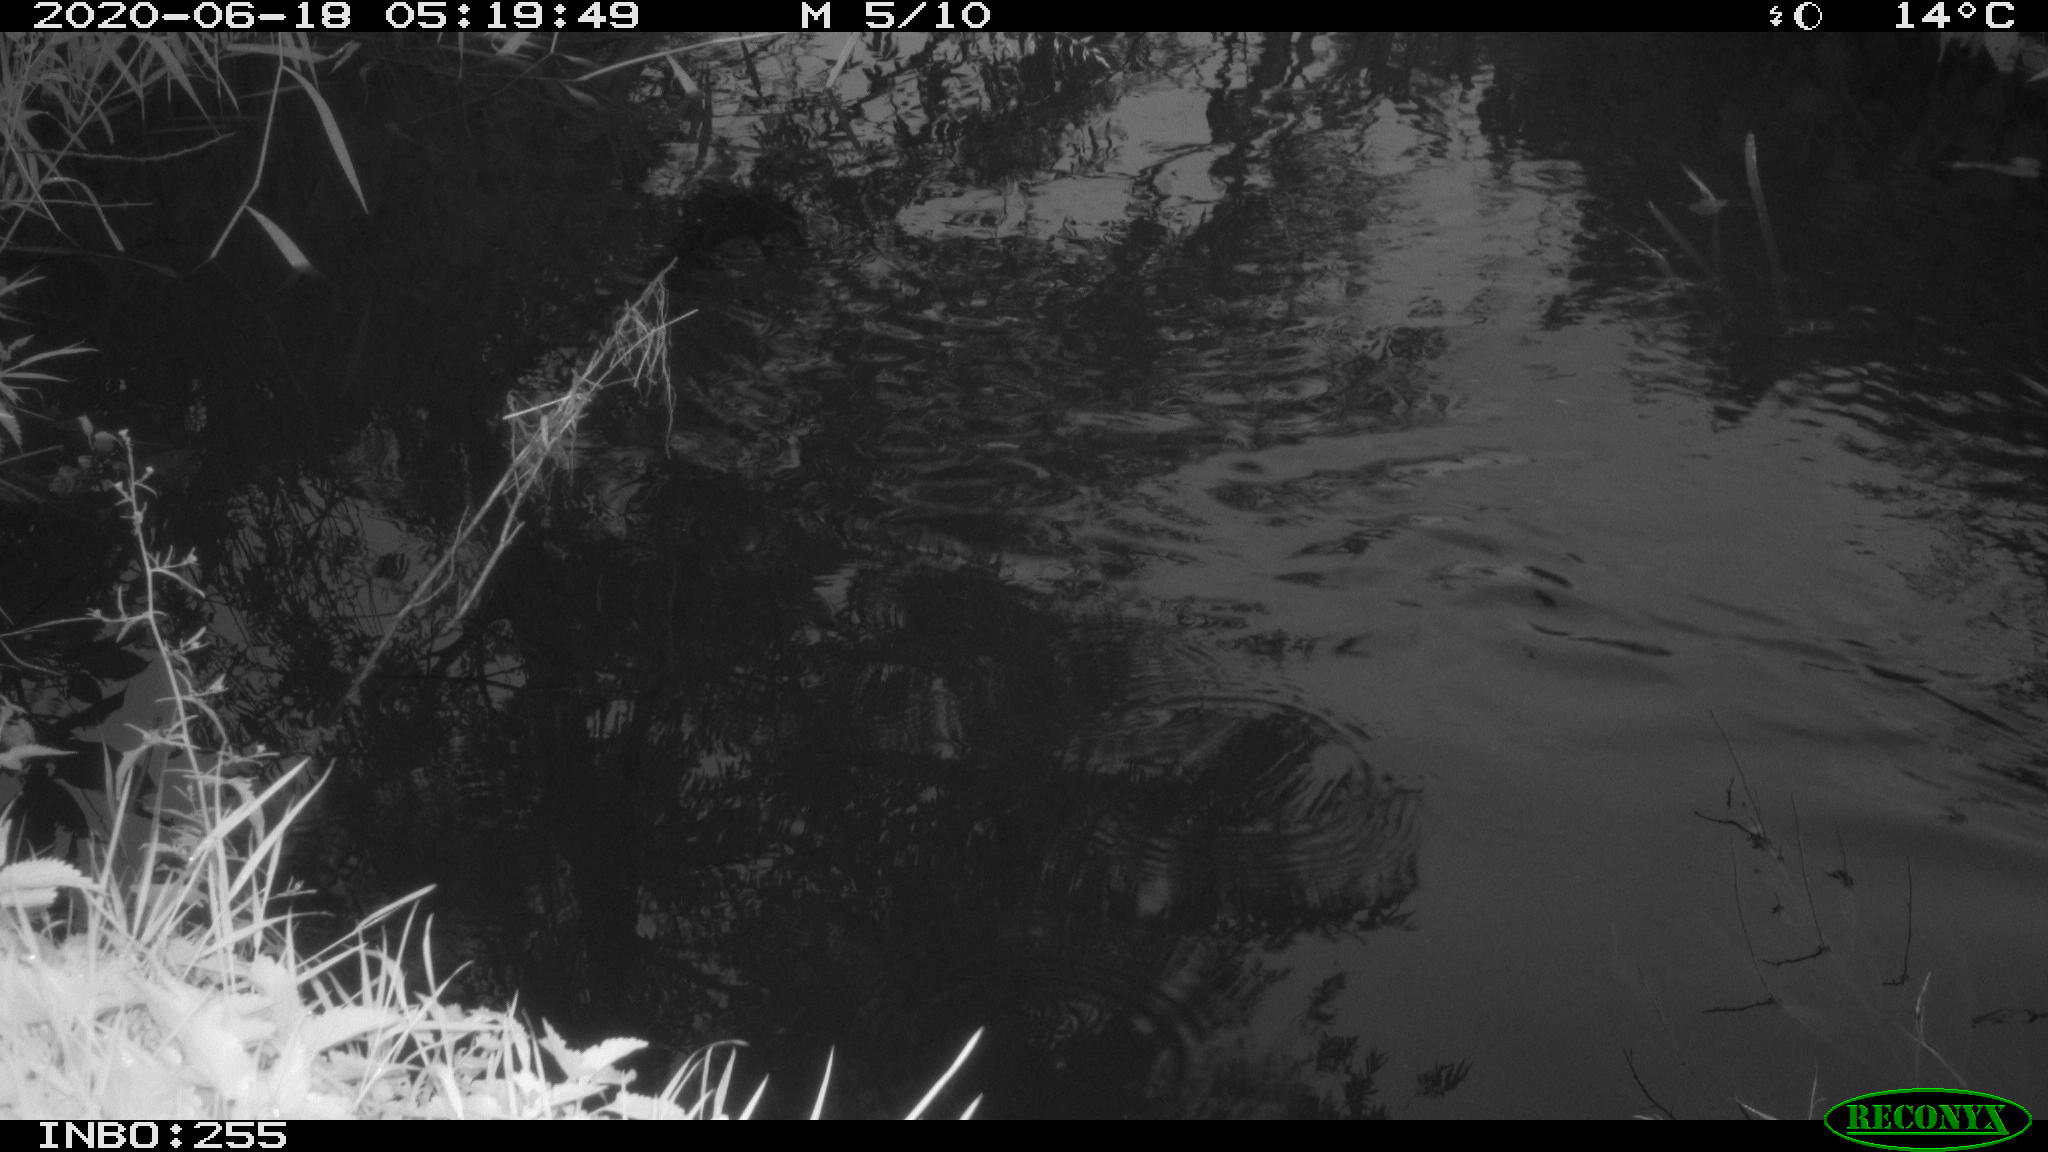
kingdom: Animalia
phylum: Chordata
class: Aves
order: Anseriformes
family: Anatidae
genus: Anas
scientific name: Anas platyrhynchos
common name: Mallard
